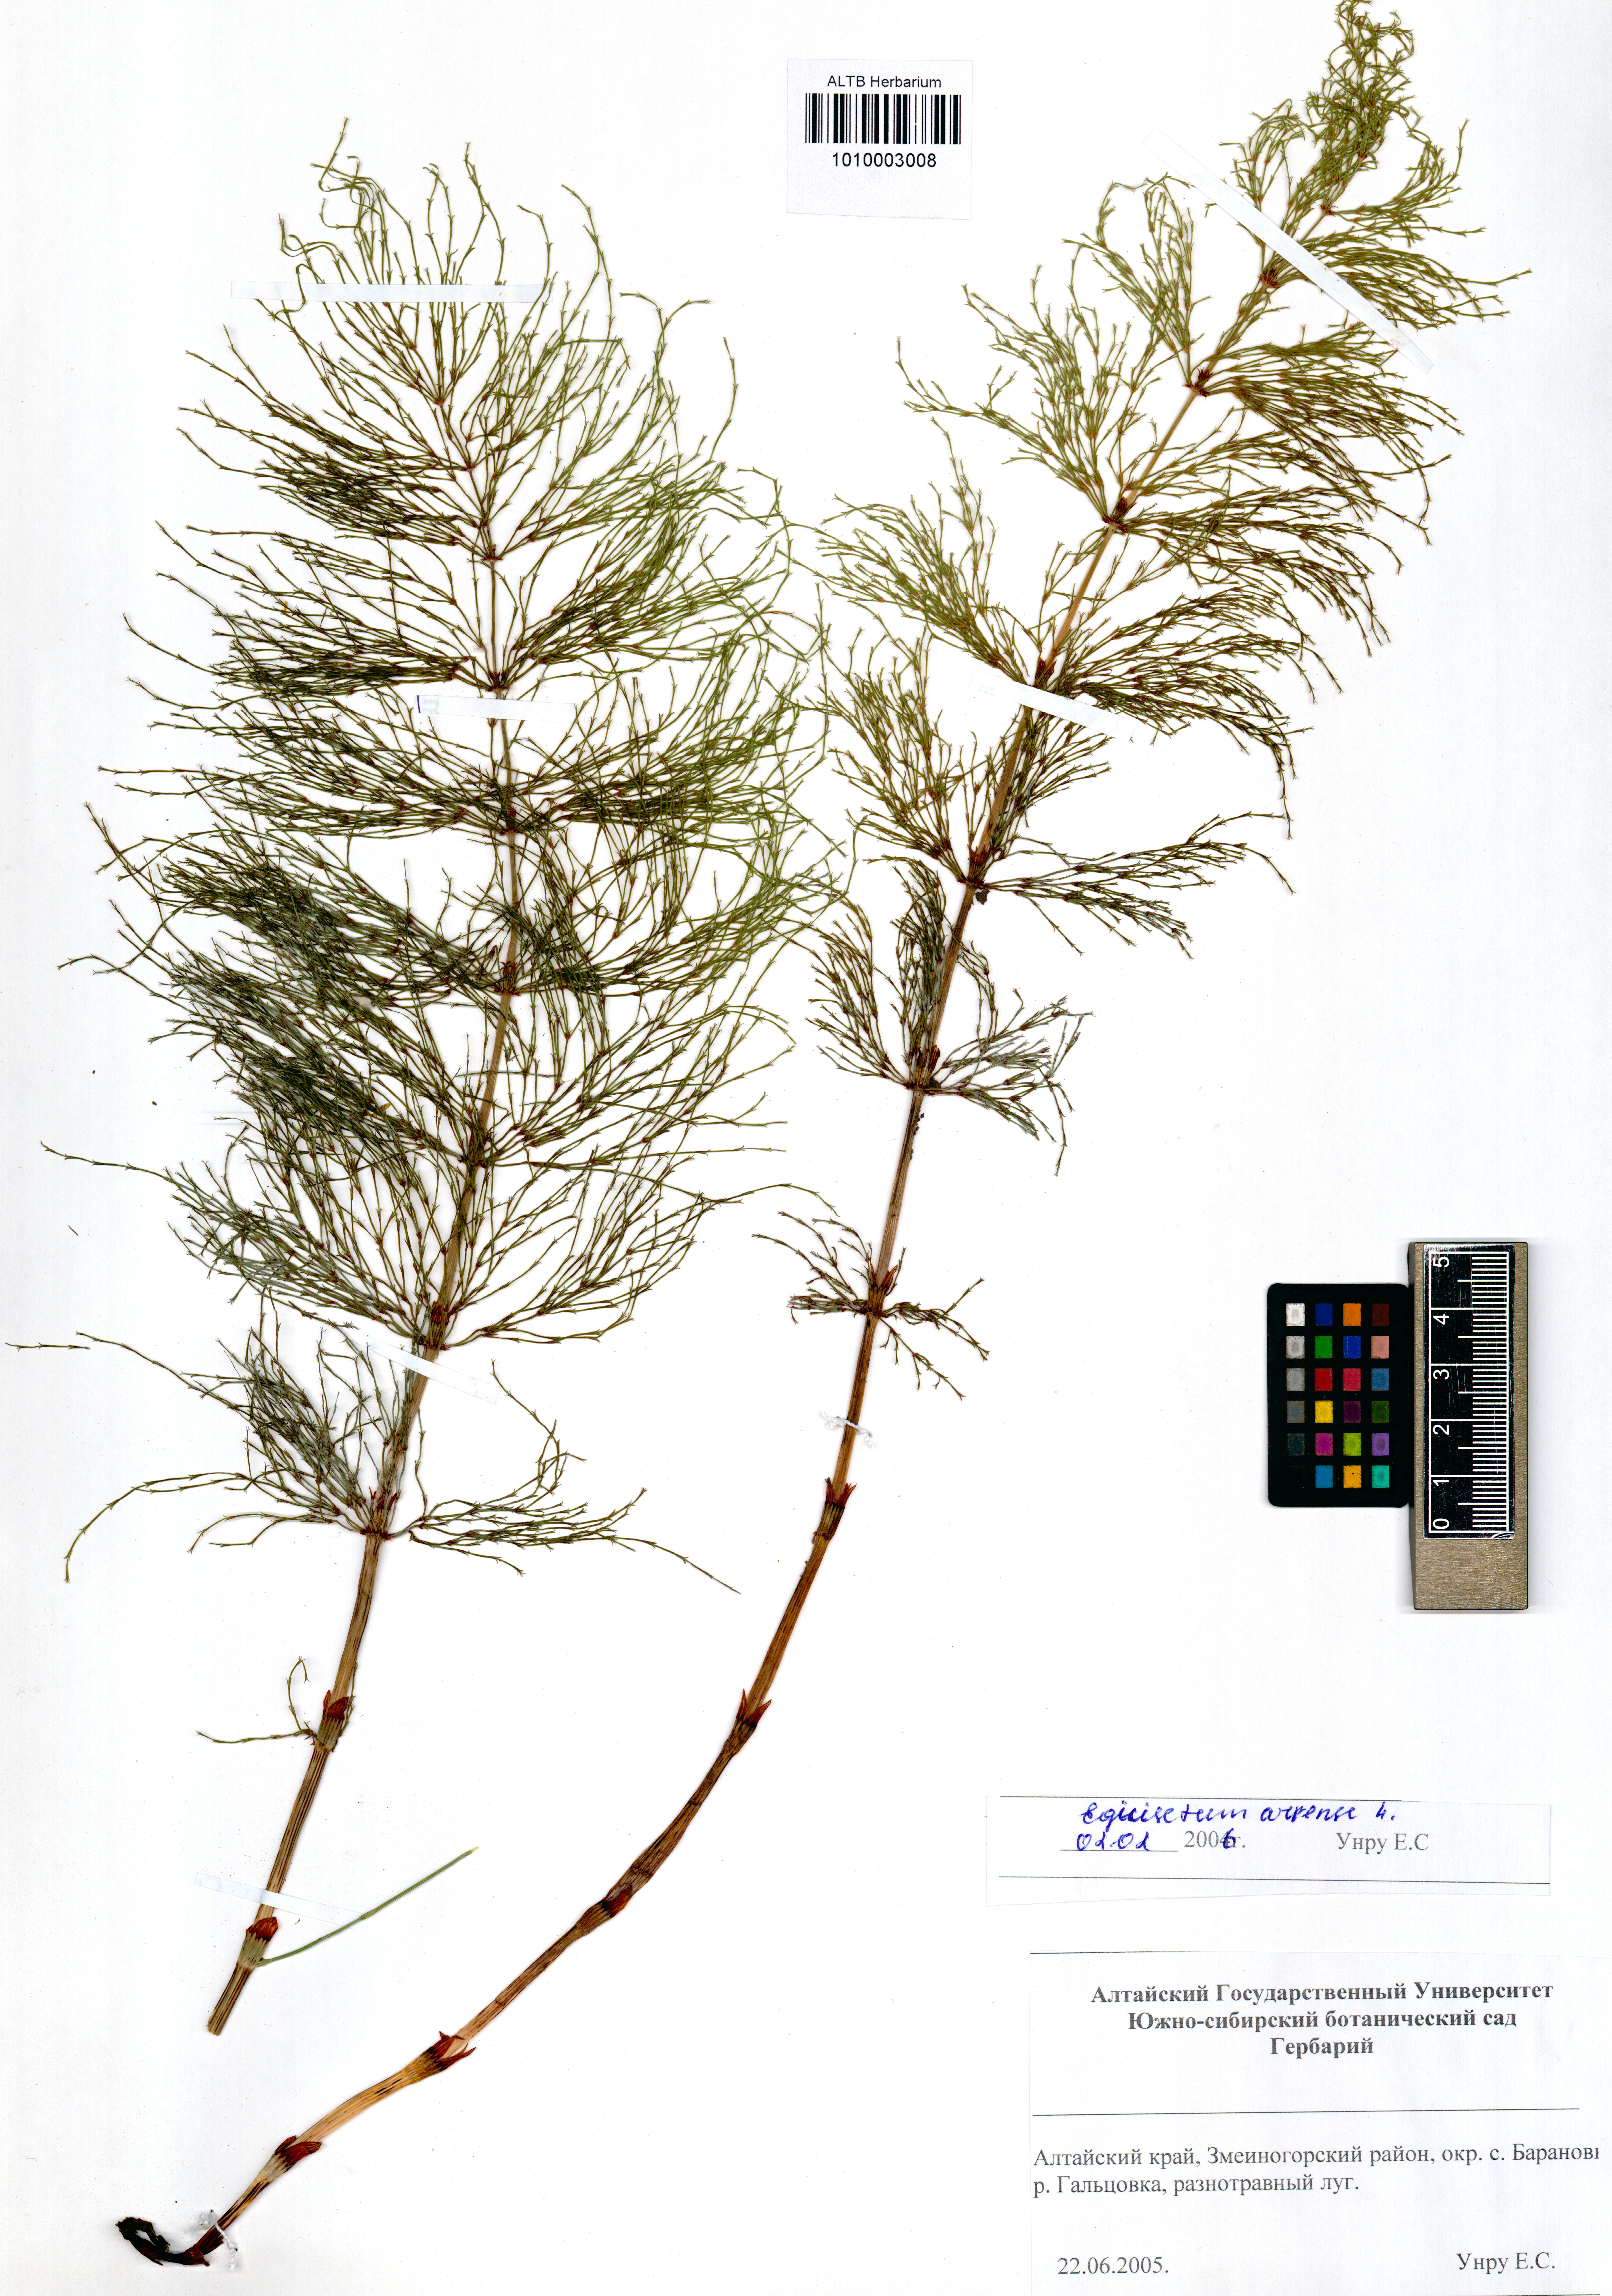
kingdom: Plantae
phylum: Tracheophyta
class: Polypodiopsida
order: Equisetales
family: Equisetaceae
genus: Equisetum
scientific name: Equisetum arvense
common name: Field horsetail
